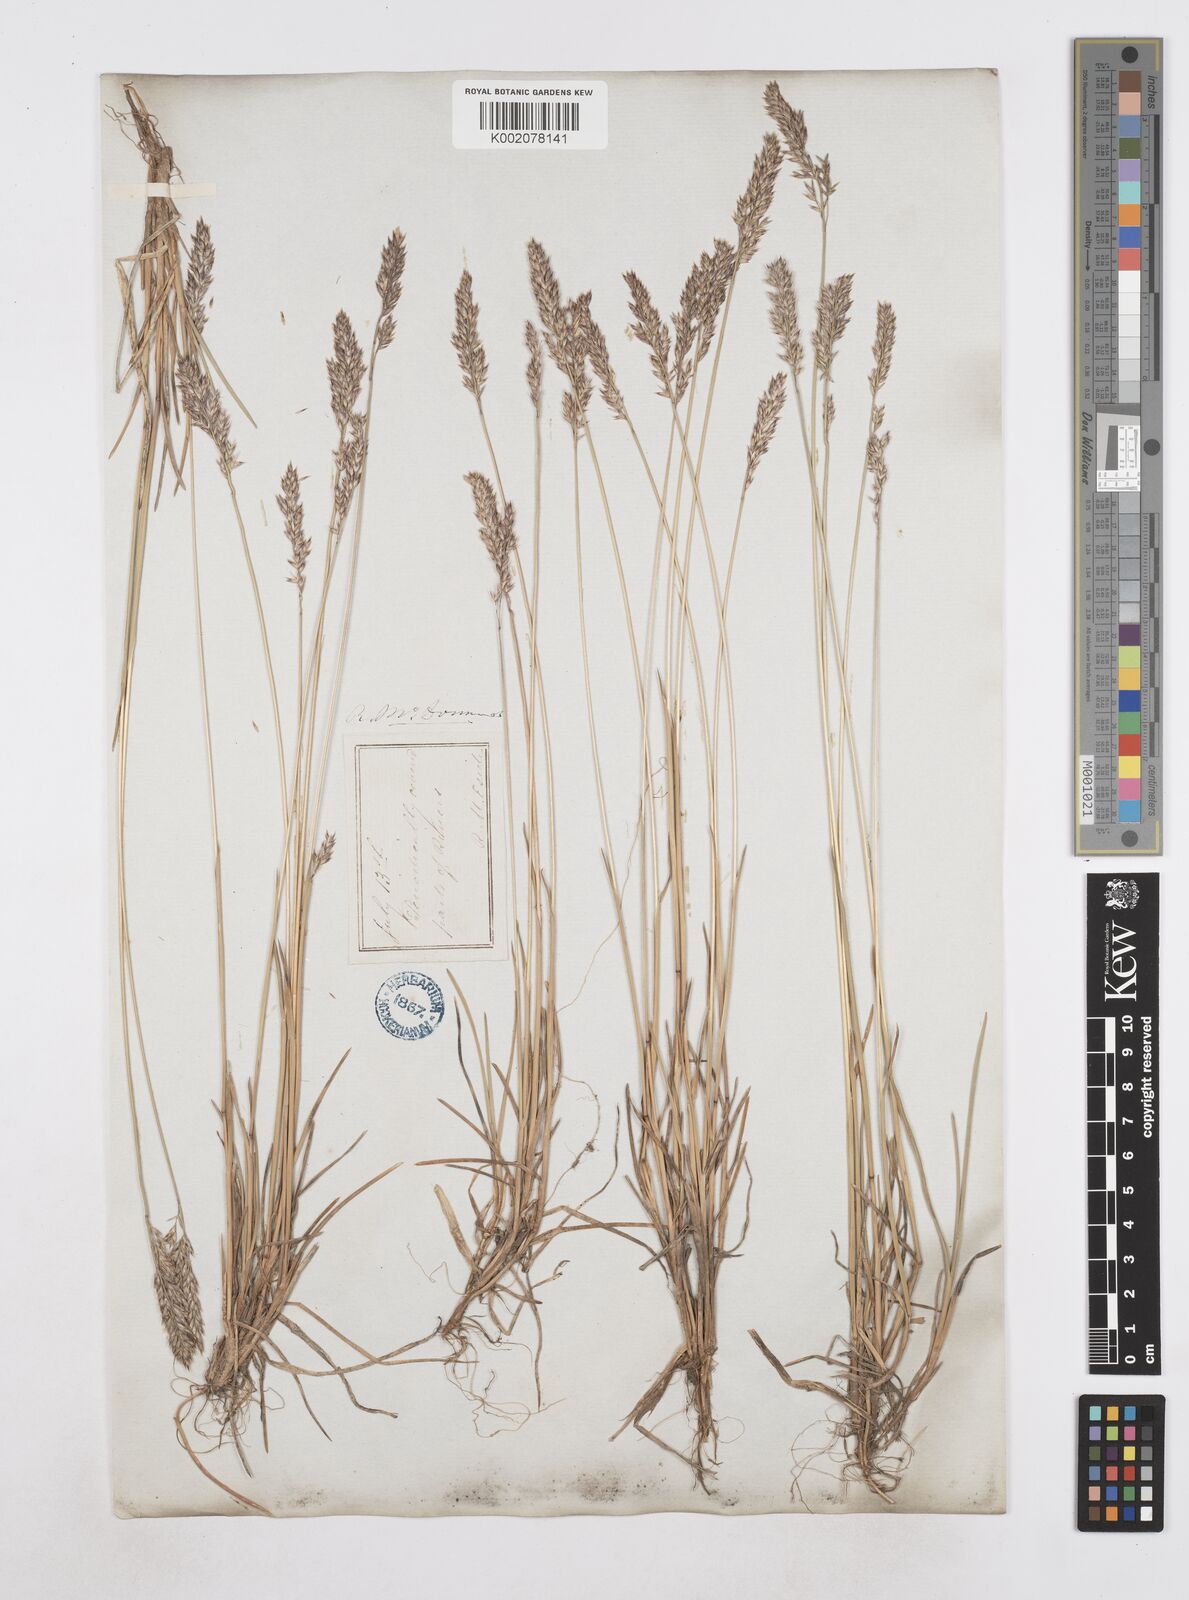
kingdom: Plantae
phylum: Tracheophyta
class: Liliopsida
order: Poales
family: Poaceae
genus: Poa
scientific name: Poa
